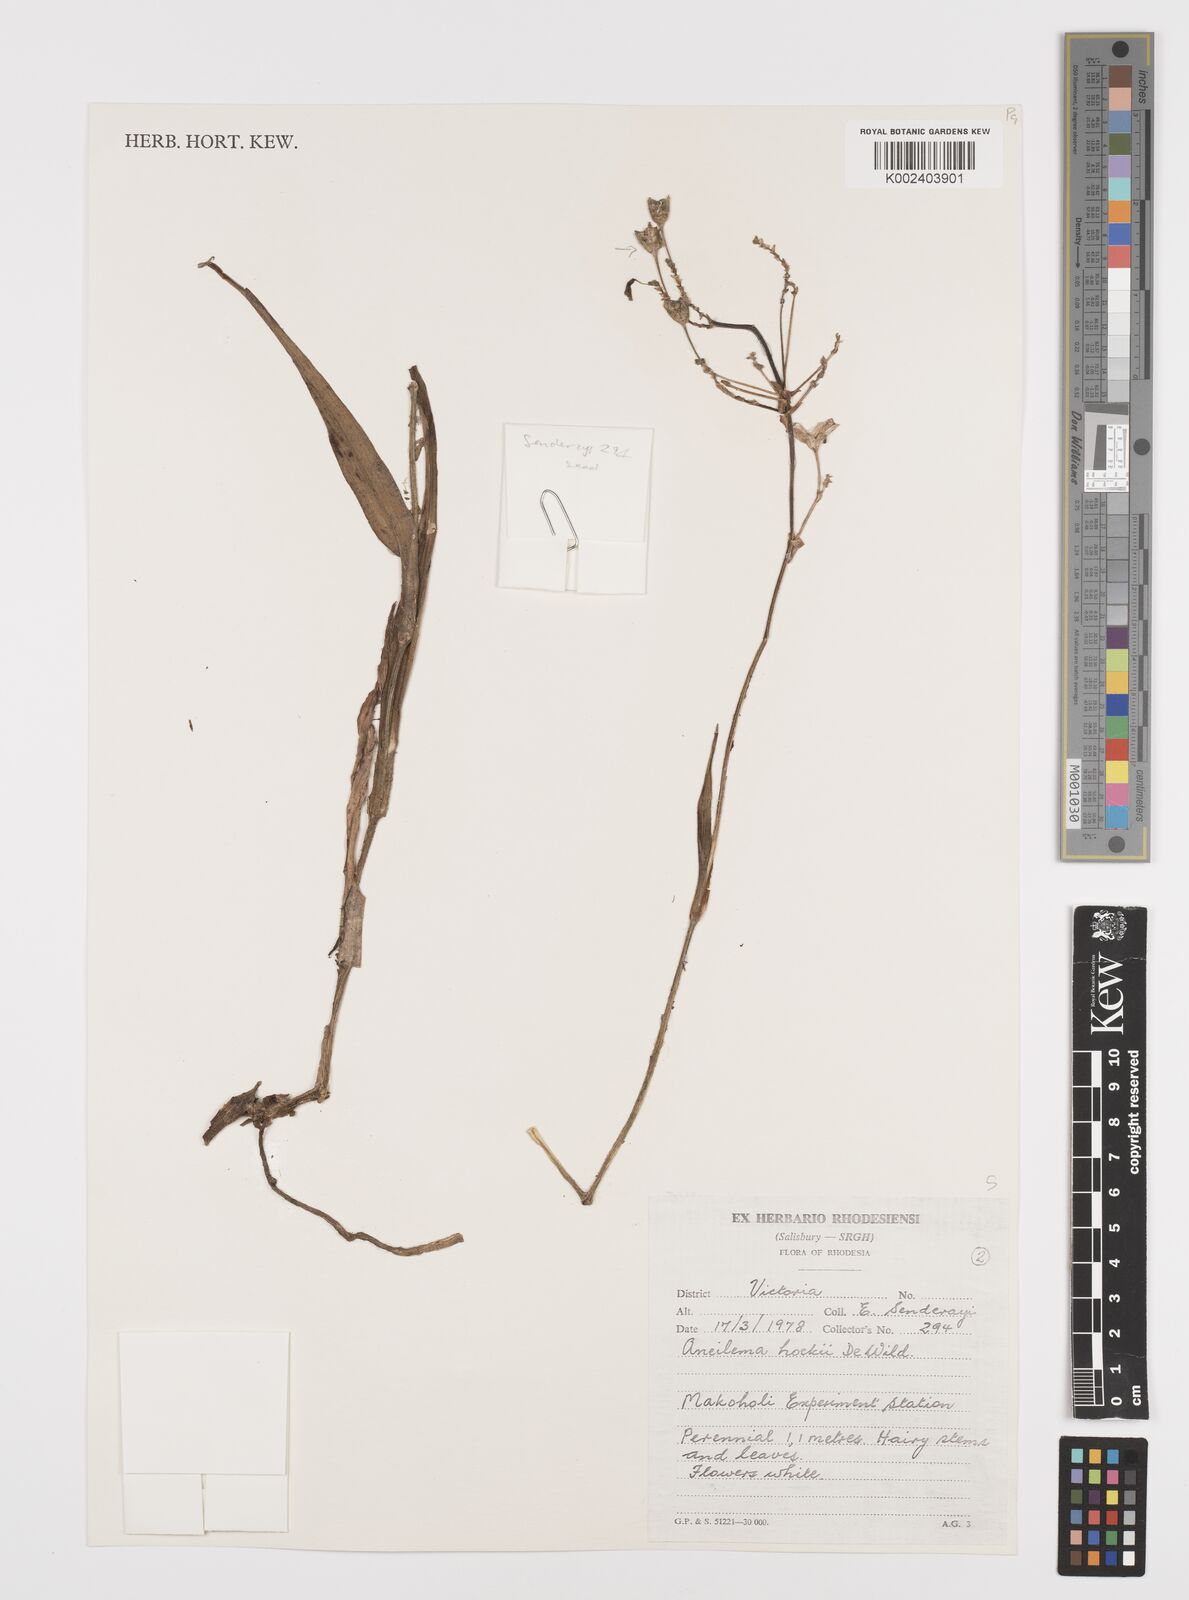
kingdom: Plantae
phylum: Tracheophyta
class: Liliopsida
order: Commelinales
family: Commelinaceae
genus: Aneilema
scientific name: Aneilema hockii
